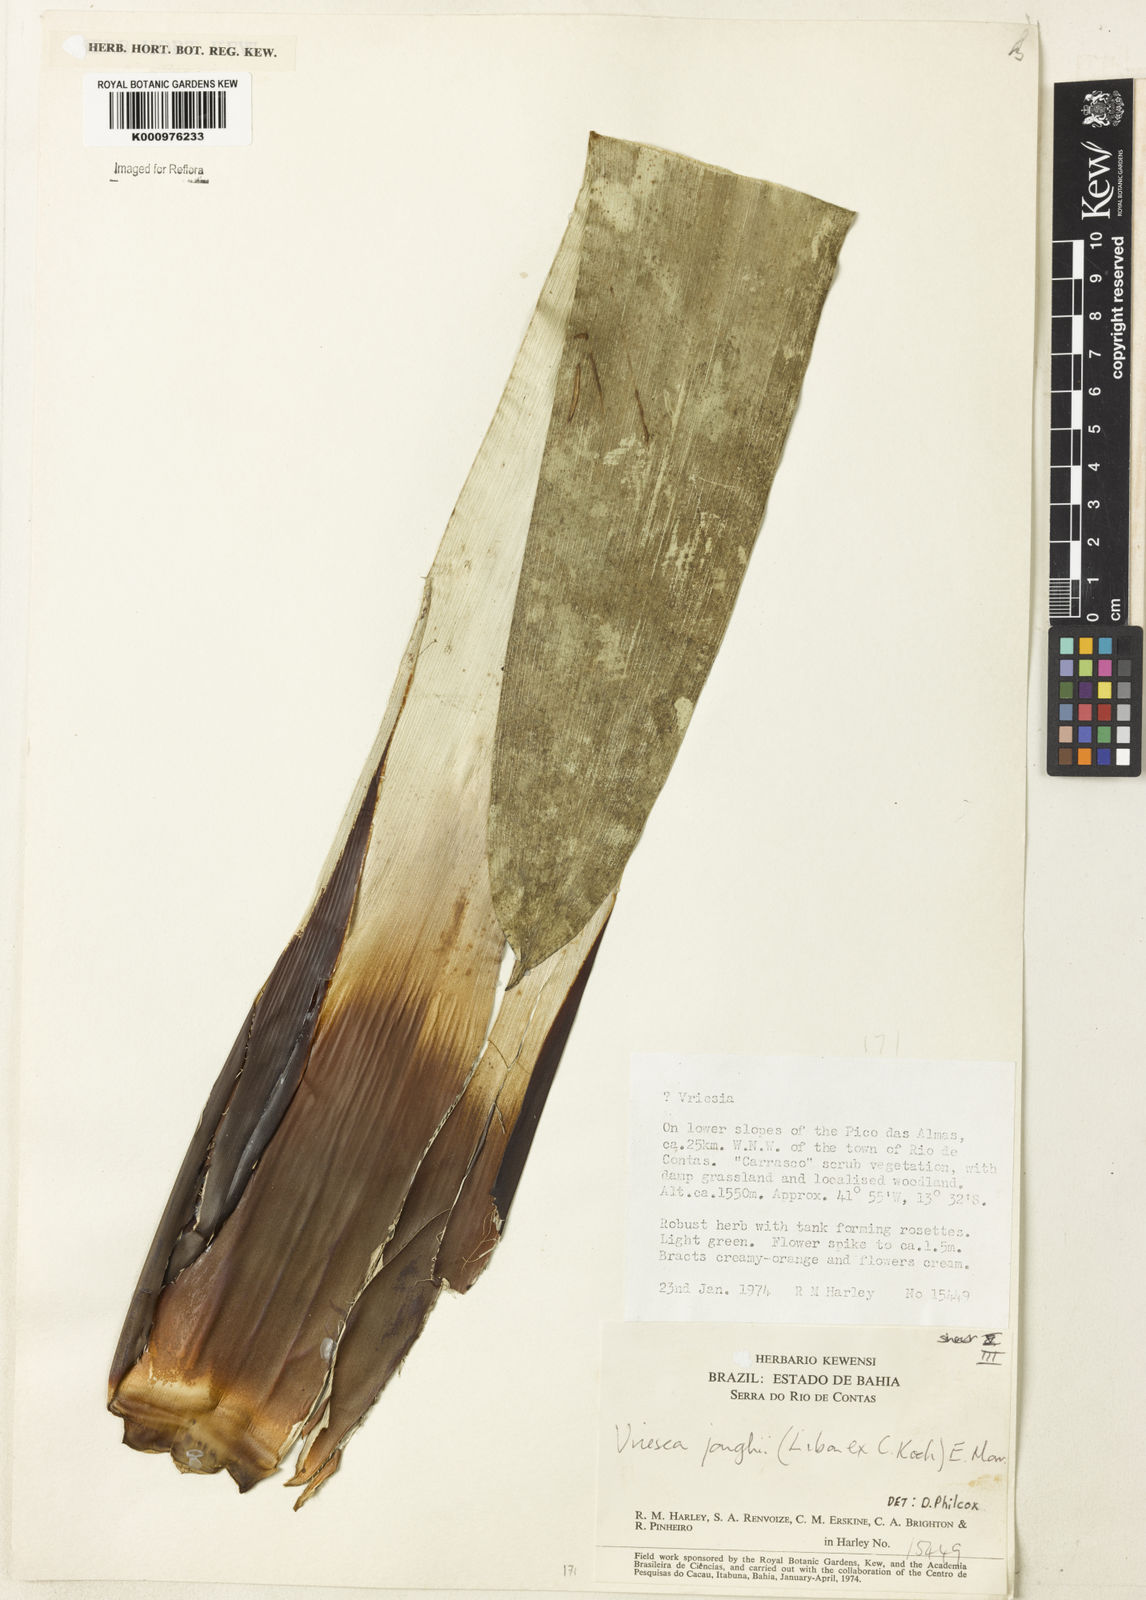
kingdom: Plantae
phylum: Tracheophyta
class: Liliopsida
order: Poales
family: Bromeliaceae
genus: Vriesea
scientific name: Vriesea jonghei
